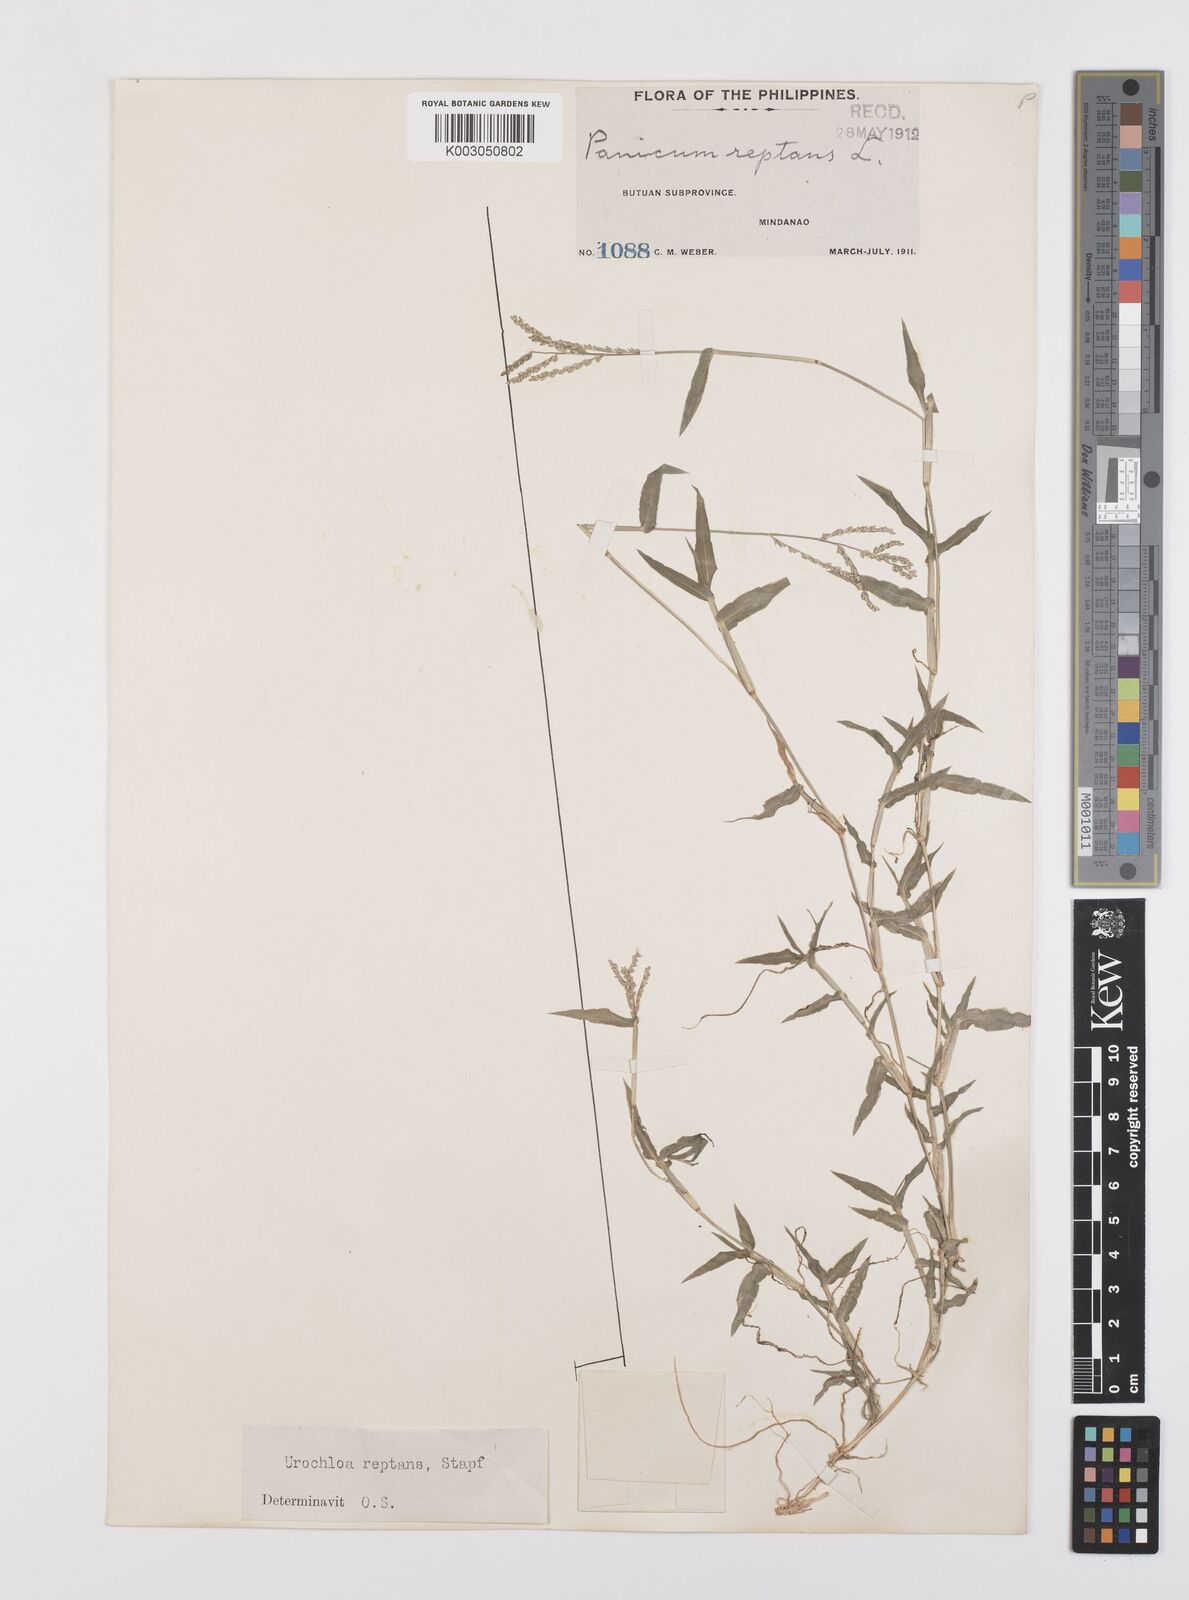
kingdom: Plantae
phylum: Tracheophyta
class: Liliopsida
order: Poales
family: Poaceae
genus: Urochloa
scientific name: Urochloa reptans
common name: Sprawling signalgrass
